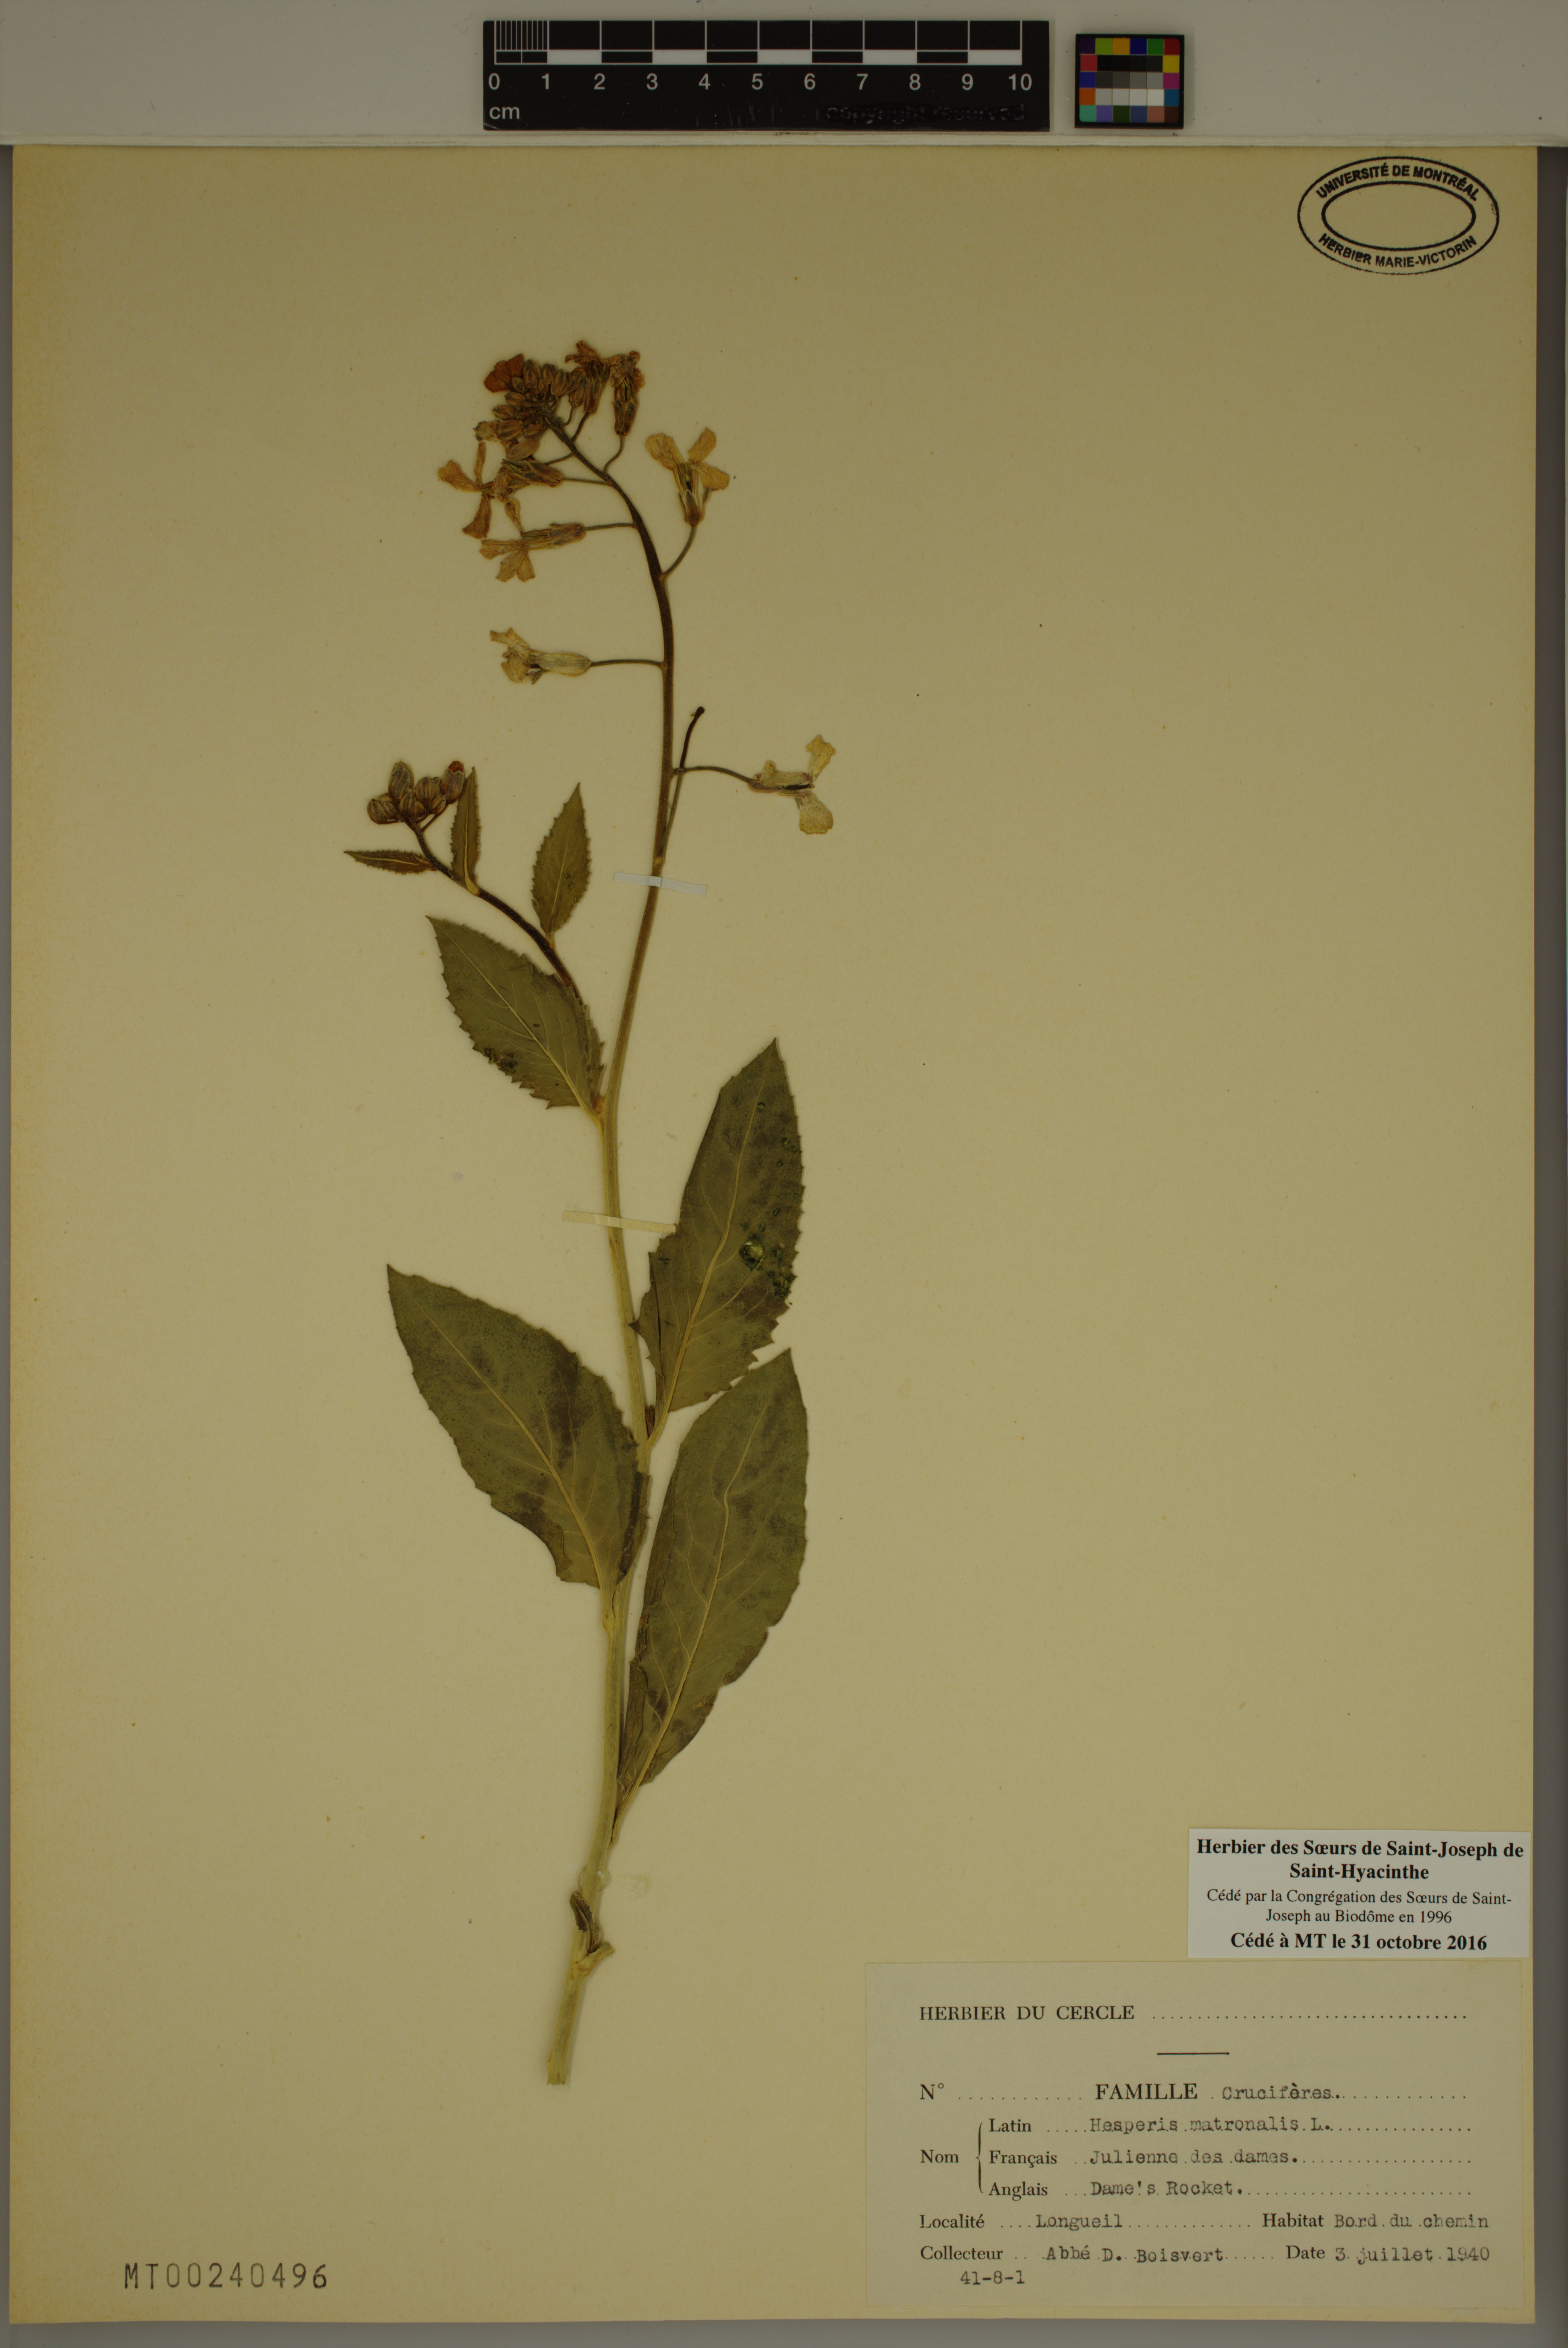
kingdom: Plantae
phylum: Tracheophyta
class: Magnoliopsida
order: Brassicales
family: Brassicaceae
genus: Hesperis
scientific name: Hesperis matronalis
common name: Dame's-violet
